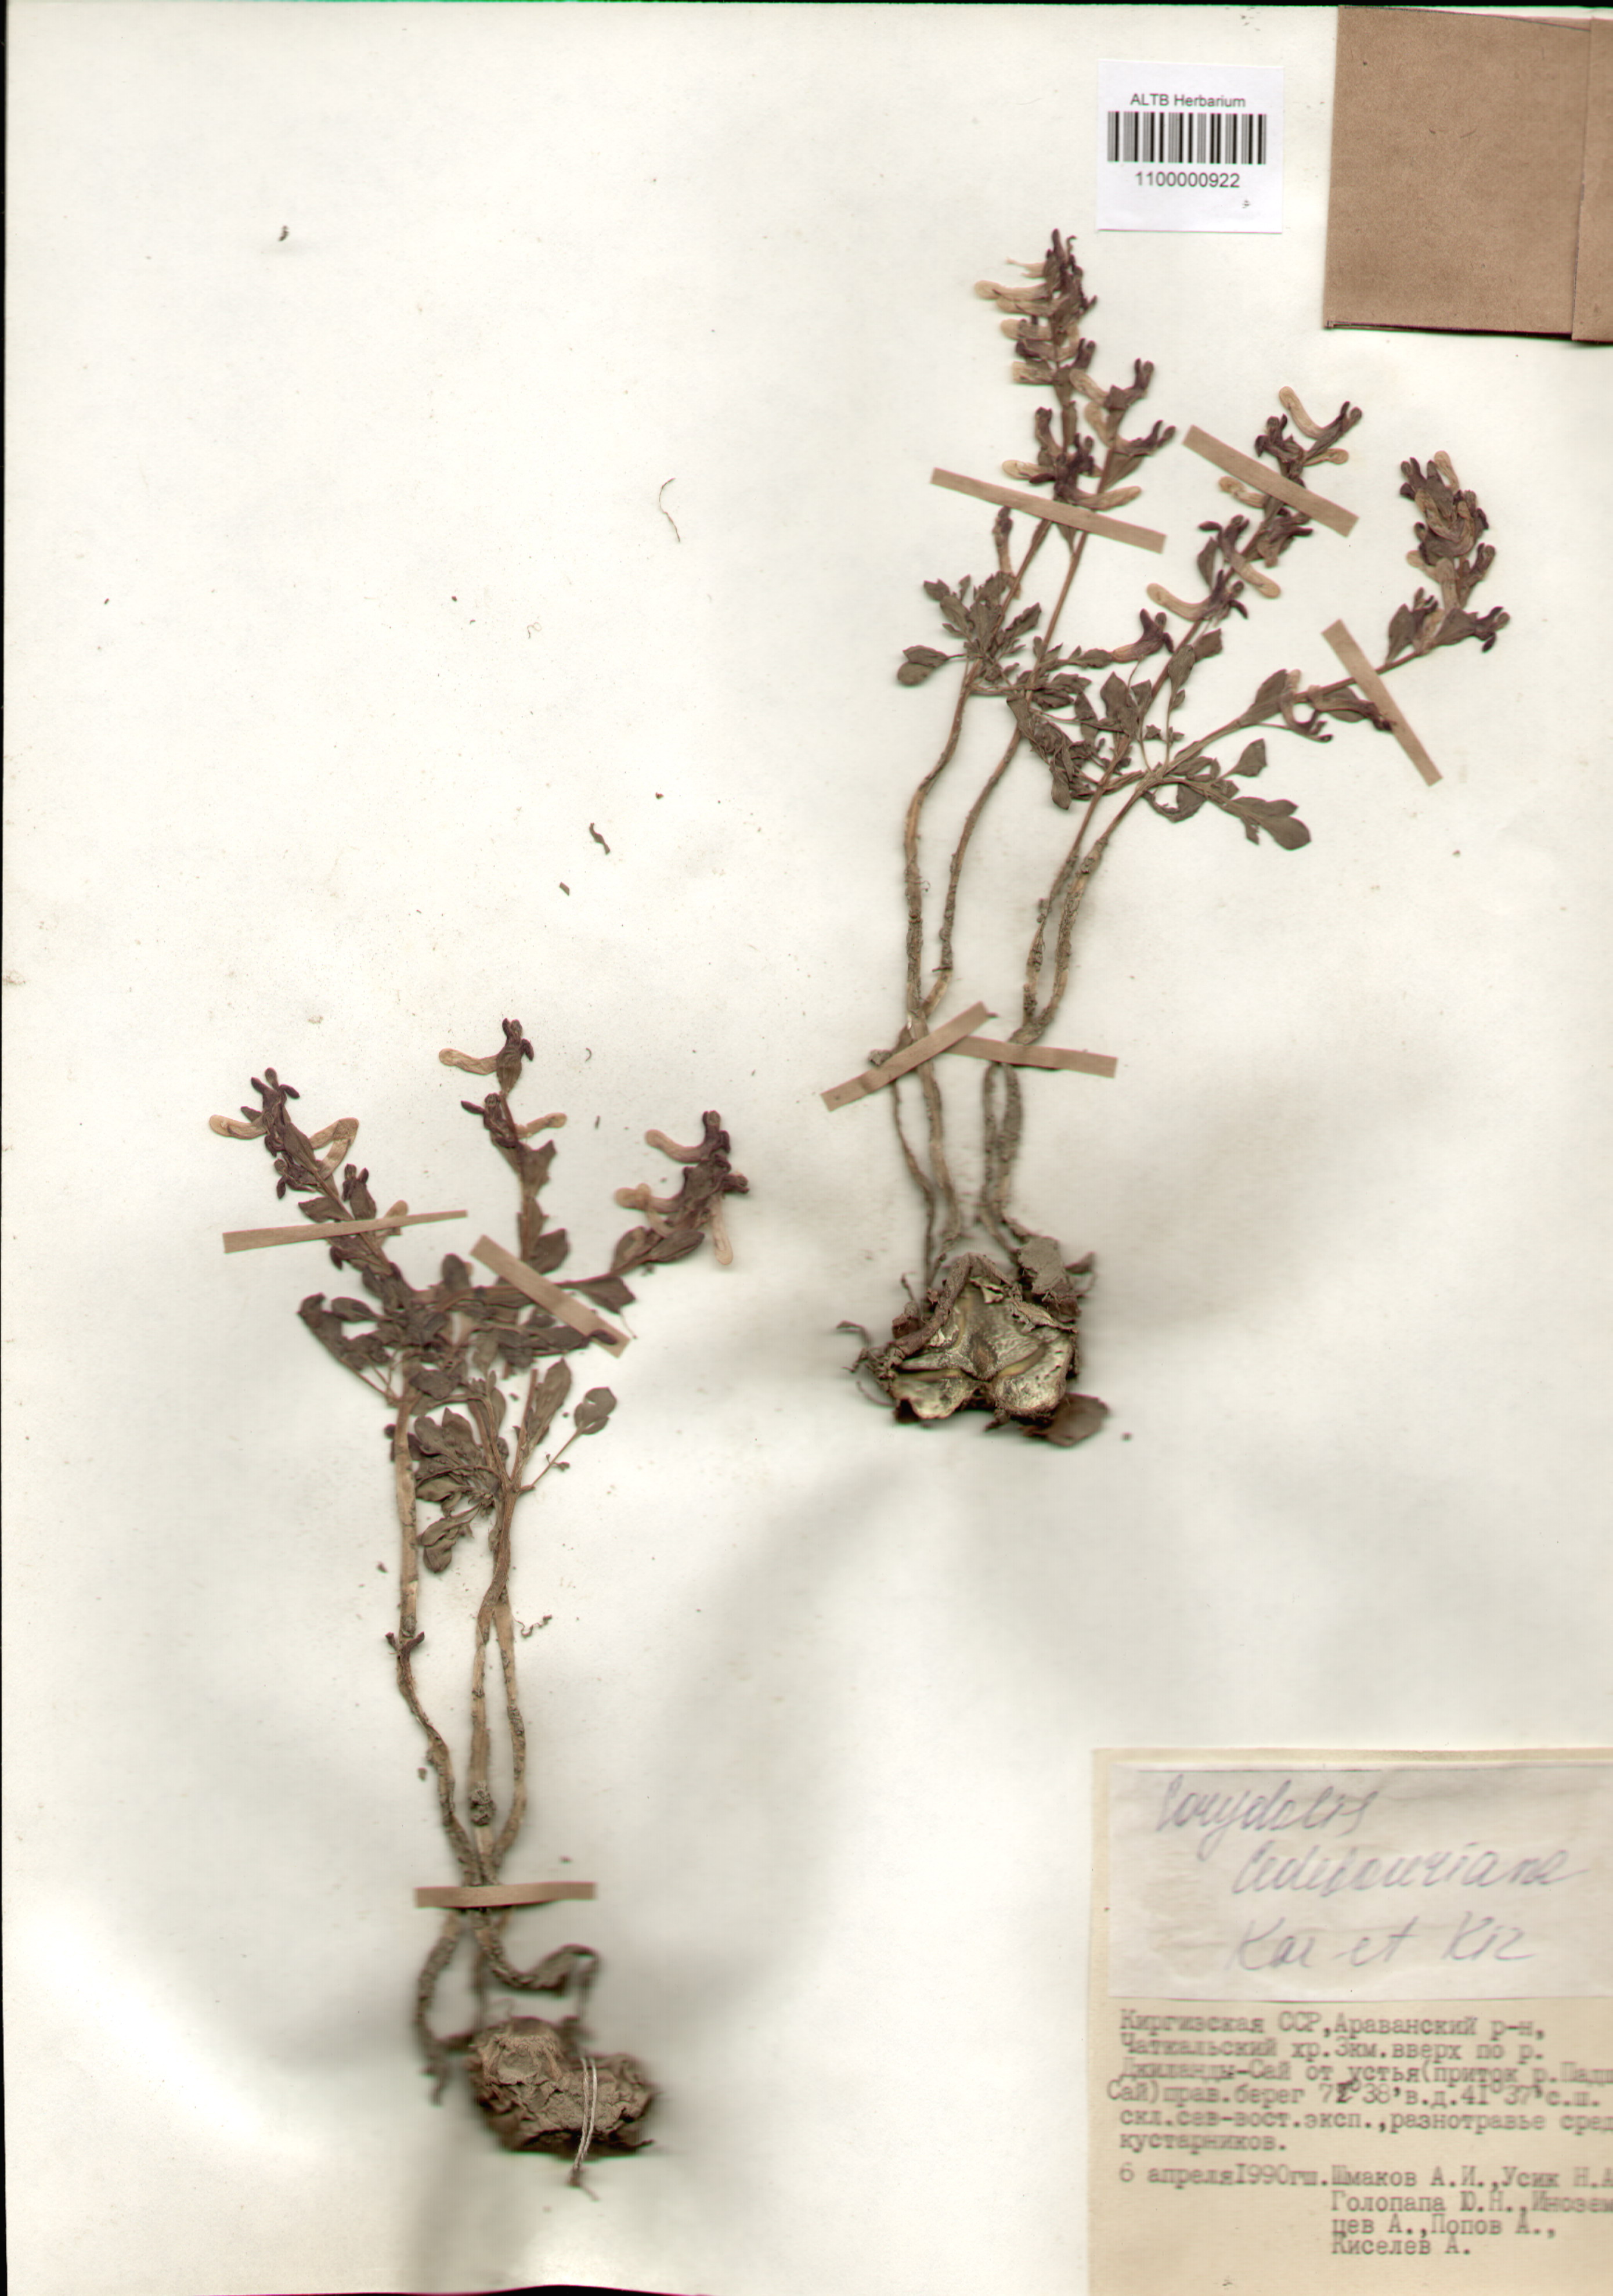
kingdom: Plantae
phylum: Tracheophyta
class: Magnoliopsida
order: Ranunculales
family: Papaveraceae
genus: Corydalis
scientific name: Corydalis ledebouriana
